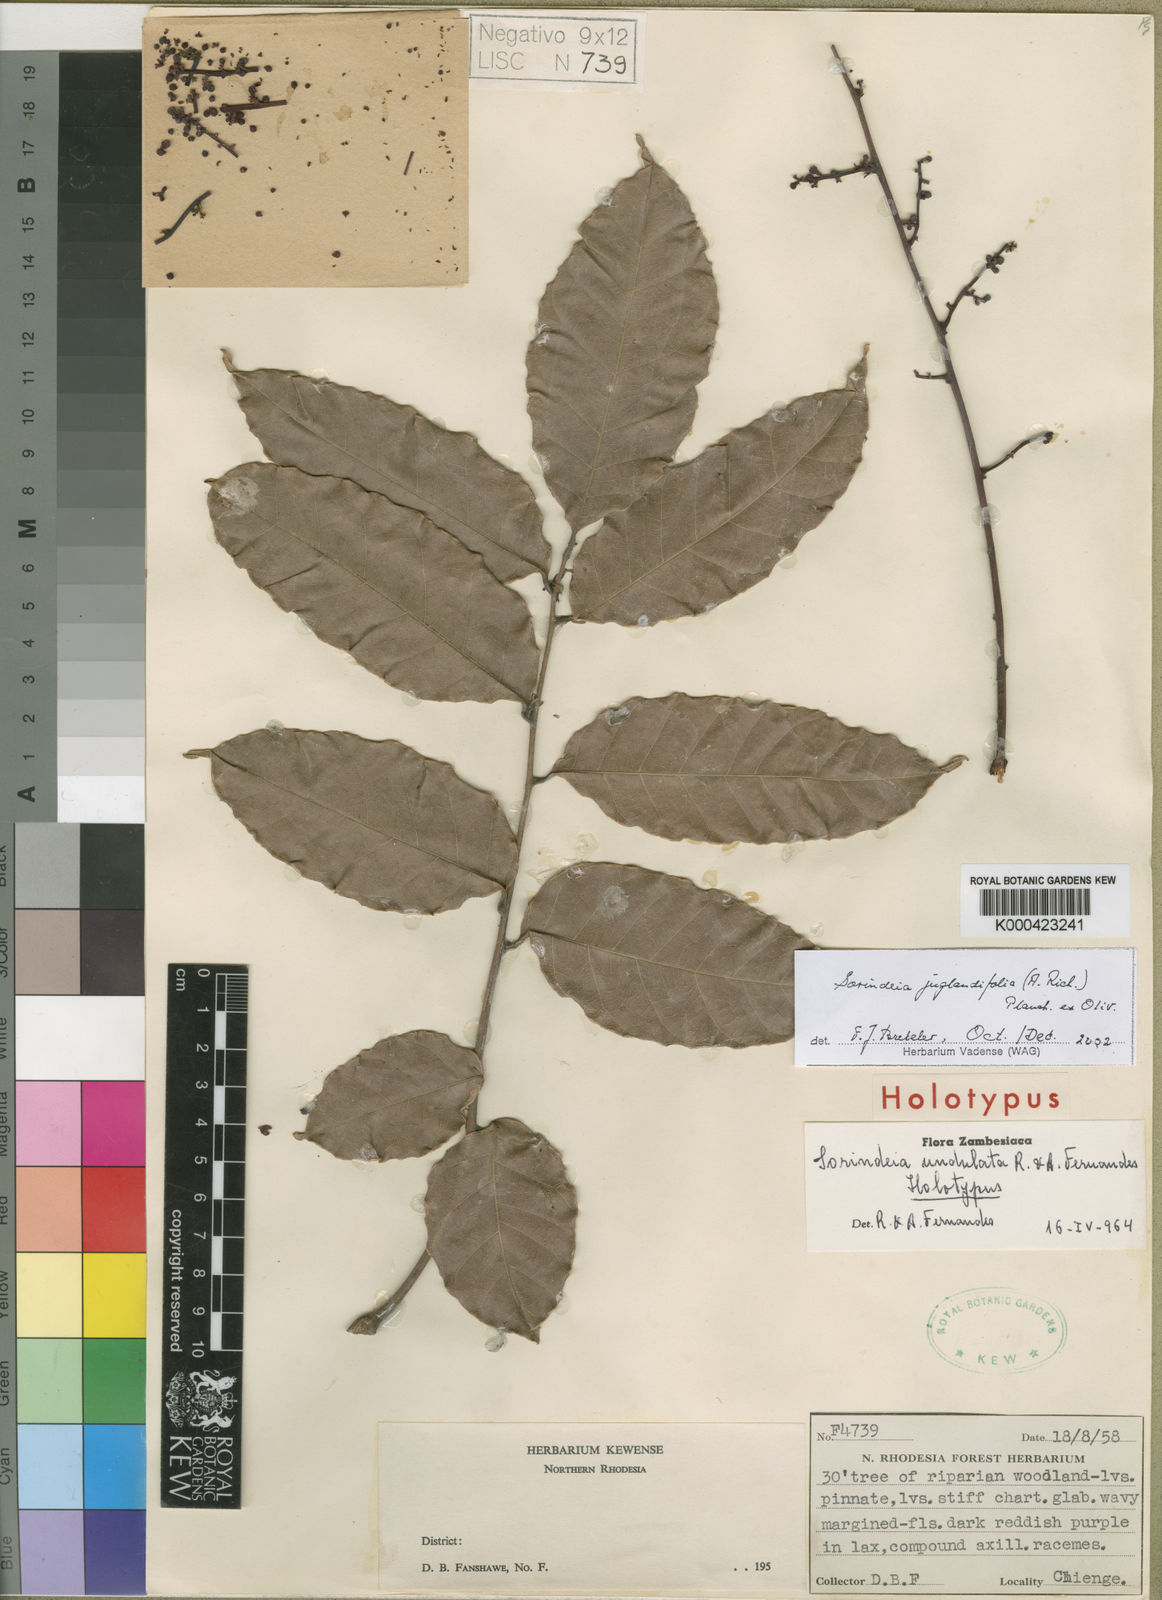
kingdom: Plantae
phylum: Tracheophyta
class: Magnoliopsida
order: Sapindales
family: Anacardiaceae
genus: Sorindeia
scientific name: Sorindeia juglandifolia
